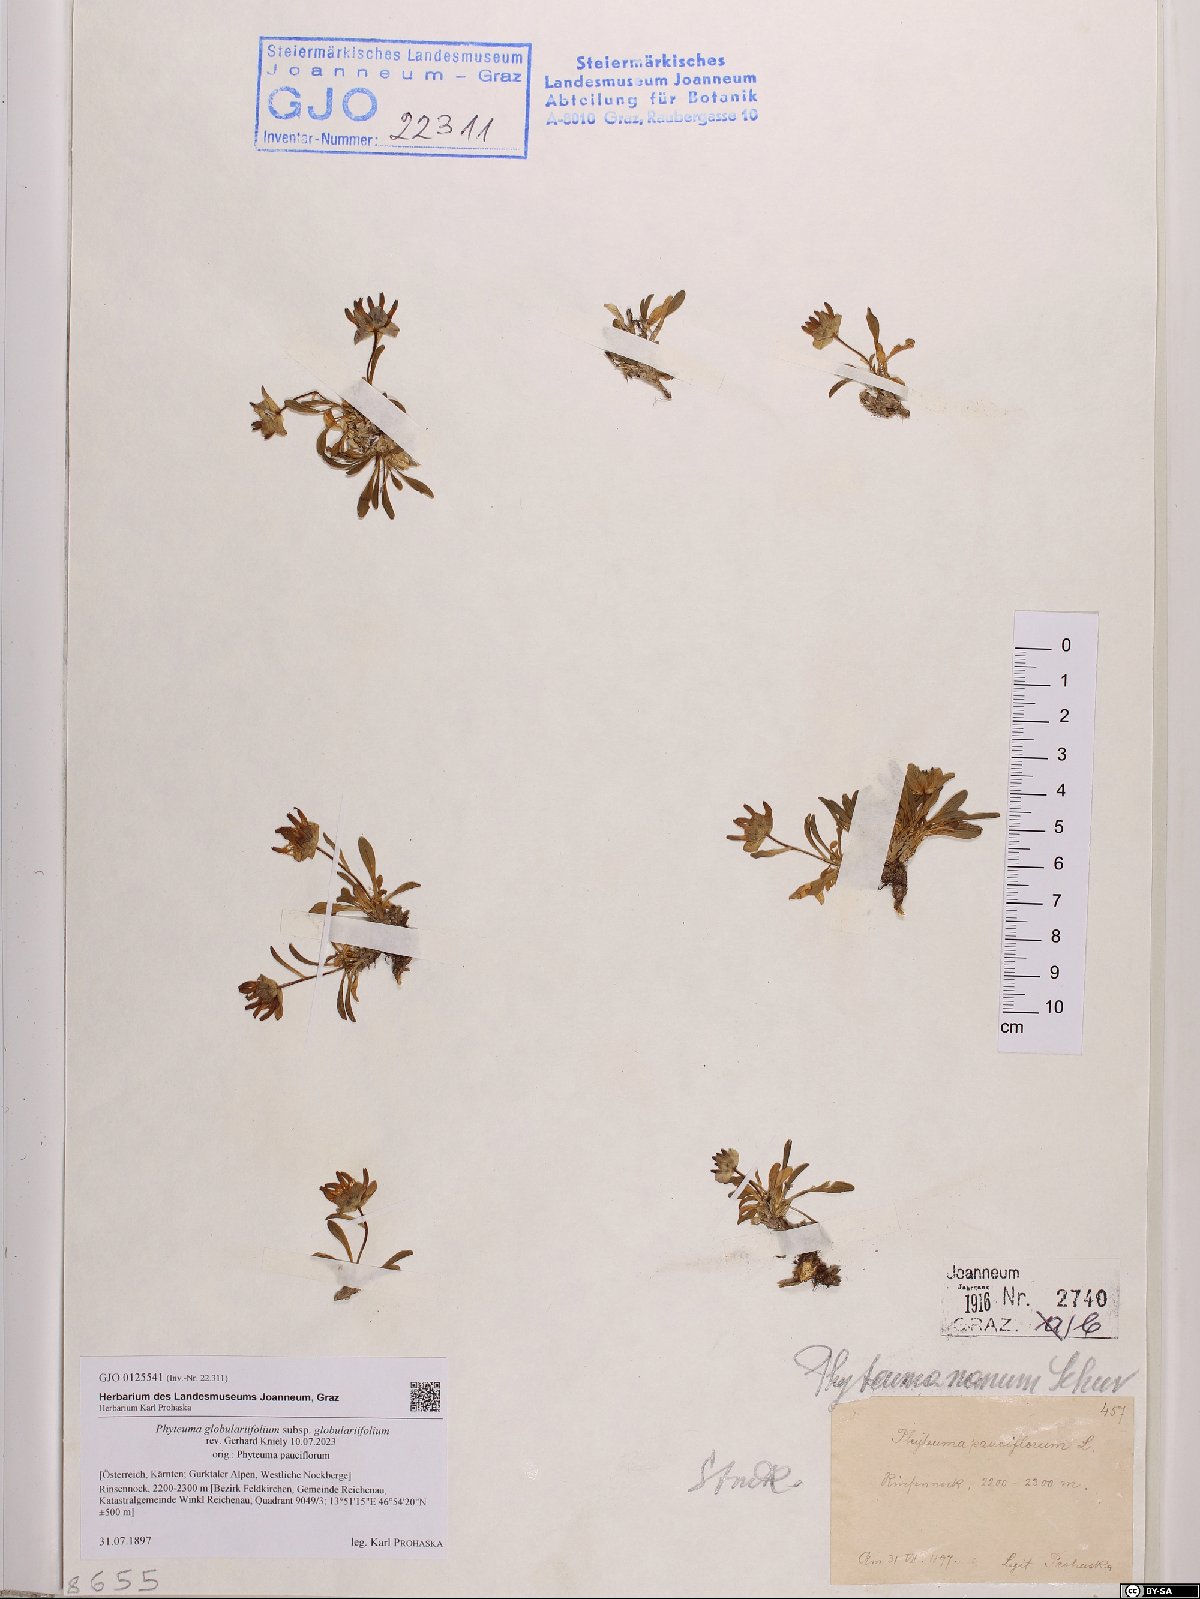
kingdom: Plantae
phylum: Tracheophyta
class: Magnoliopsida
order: Asterales
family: Campanulaceae
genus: Phyteuma
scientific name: Phyteuma globulariifolium
